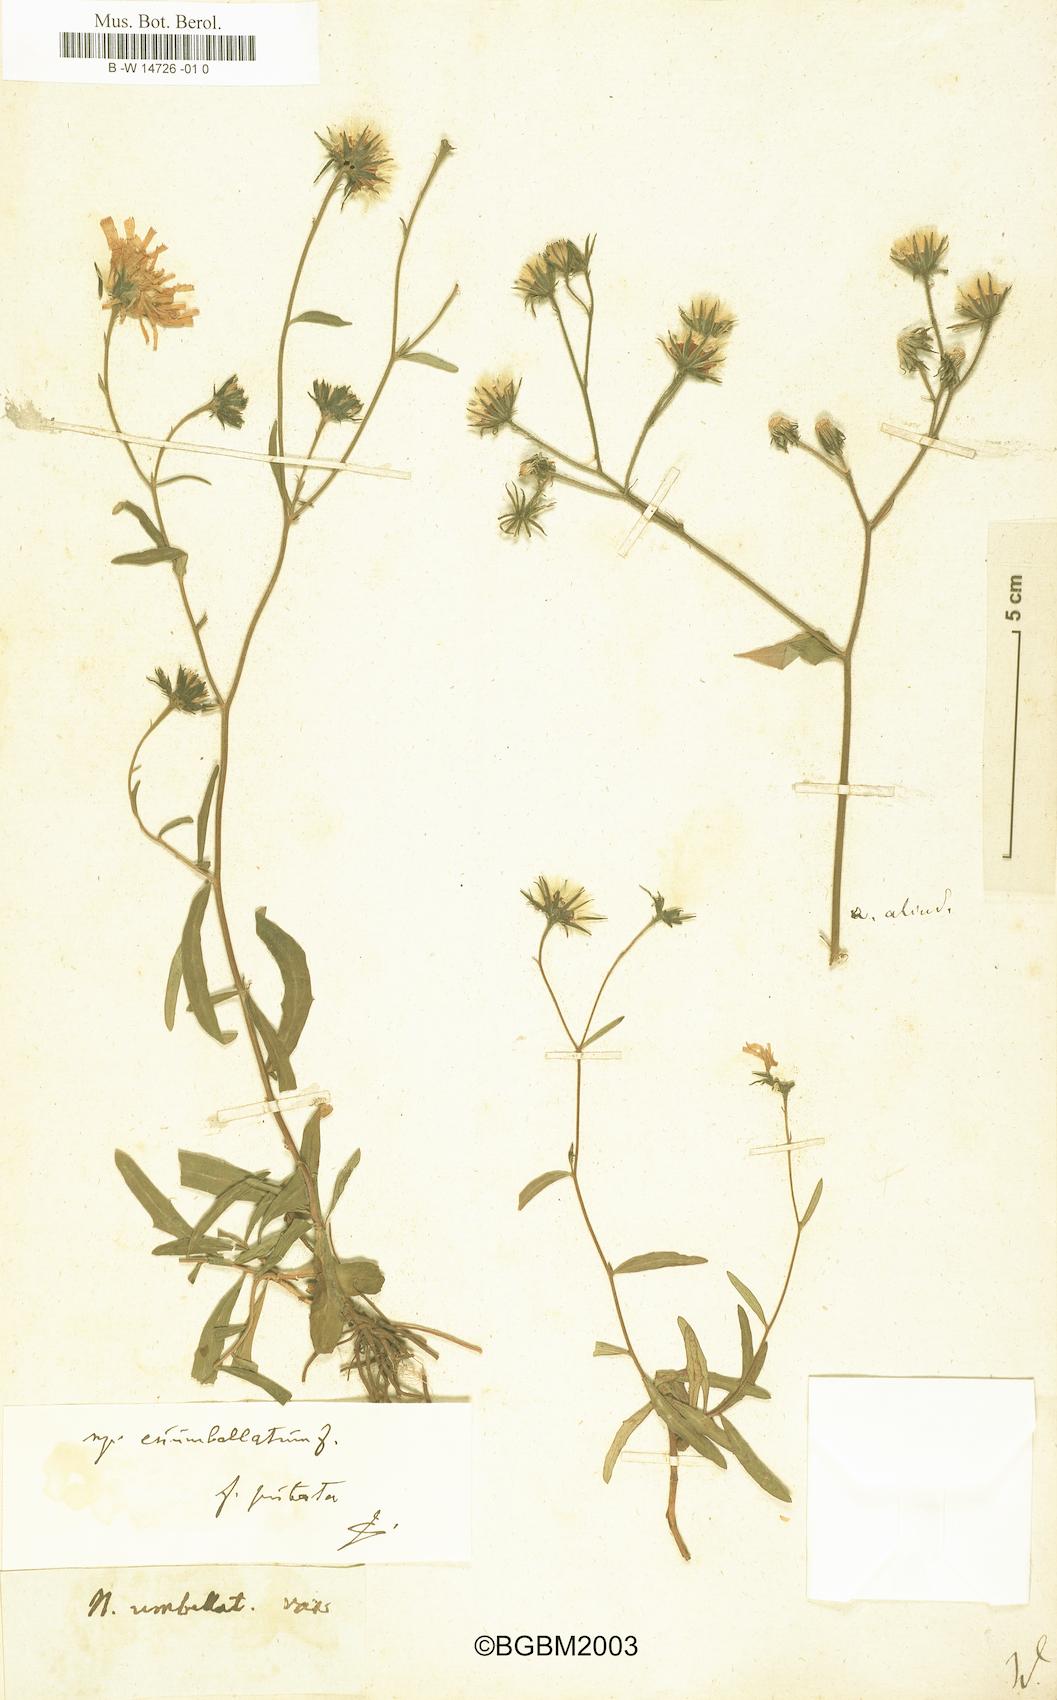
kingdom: Plantae
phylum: Tracheophyta
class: Magnoliopsida
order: Asterales
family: Asteraceae
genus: Hieracium
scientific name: Hieracium
